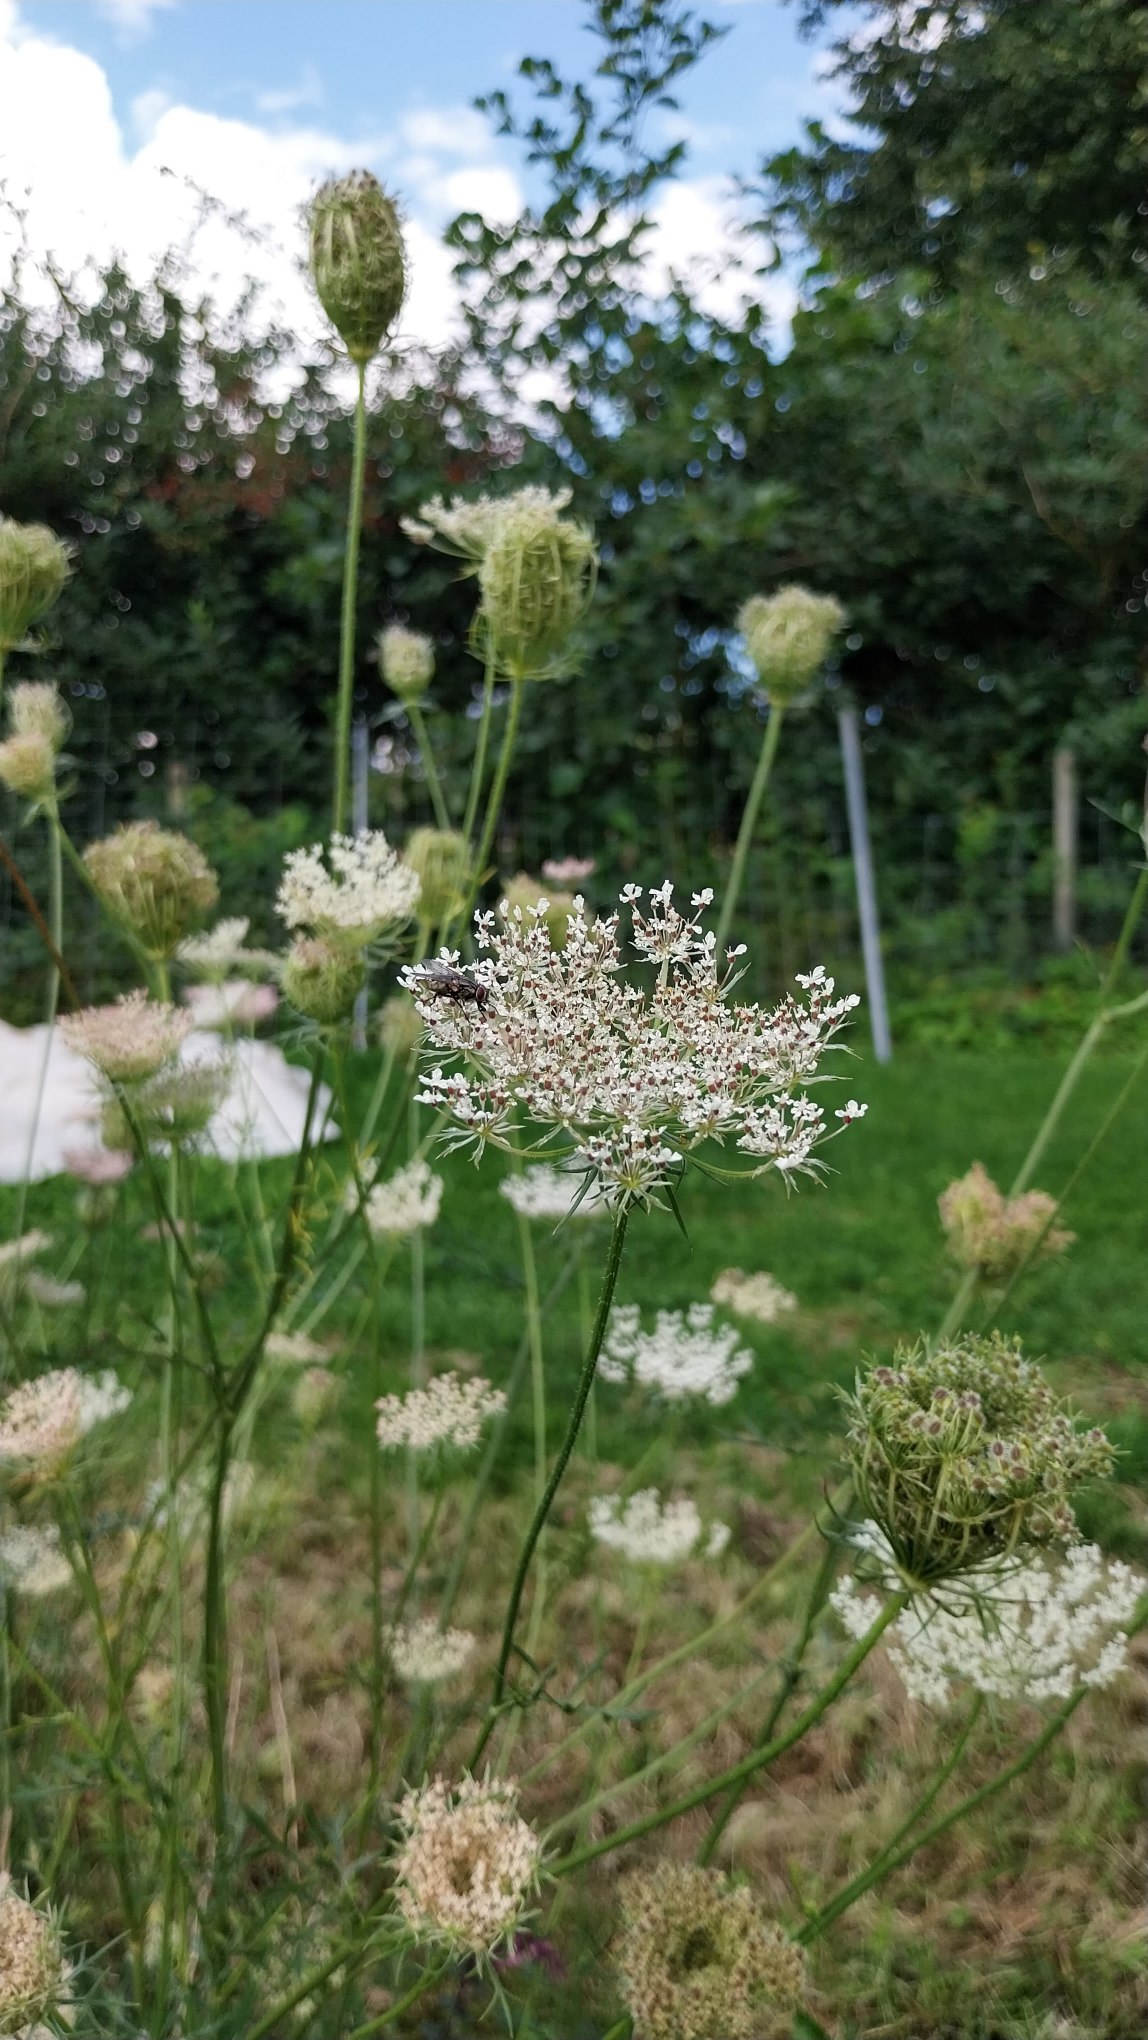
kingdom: Plantae
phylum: Tracheophyta
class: Magnoliopsida
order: Apiales
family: Apiaceae
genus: Daucus
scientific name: Daucus carota
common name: Vild gulerod
